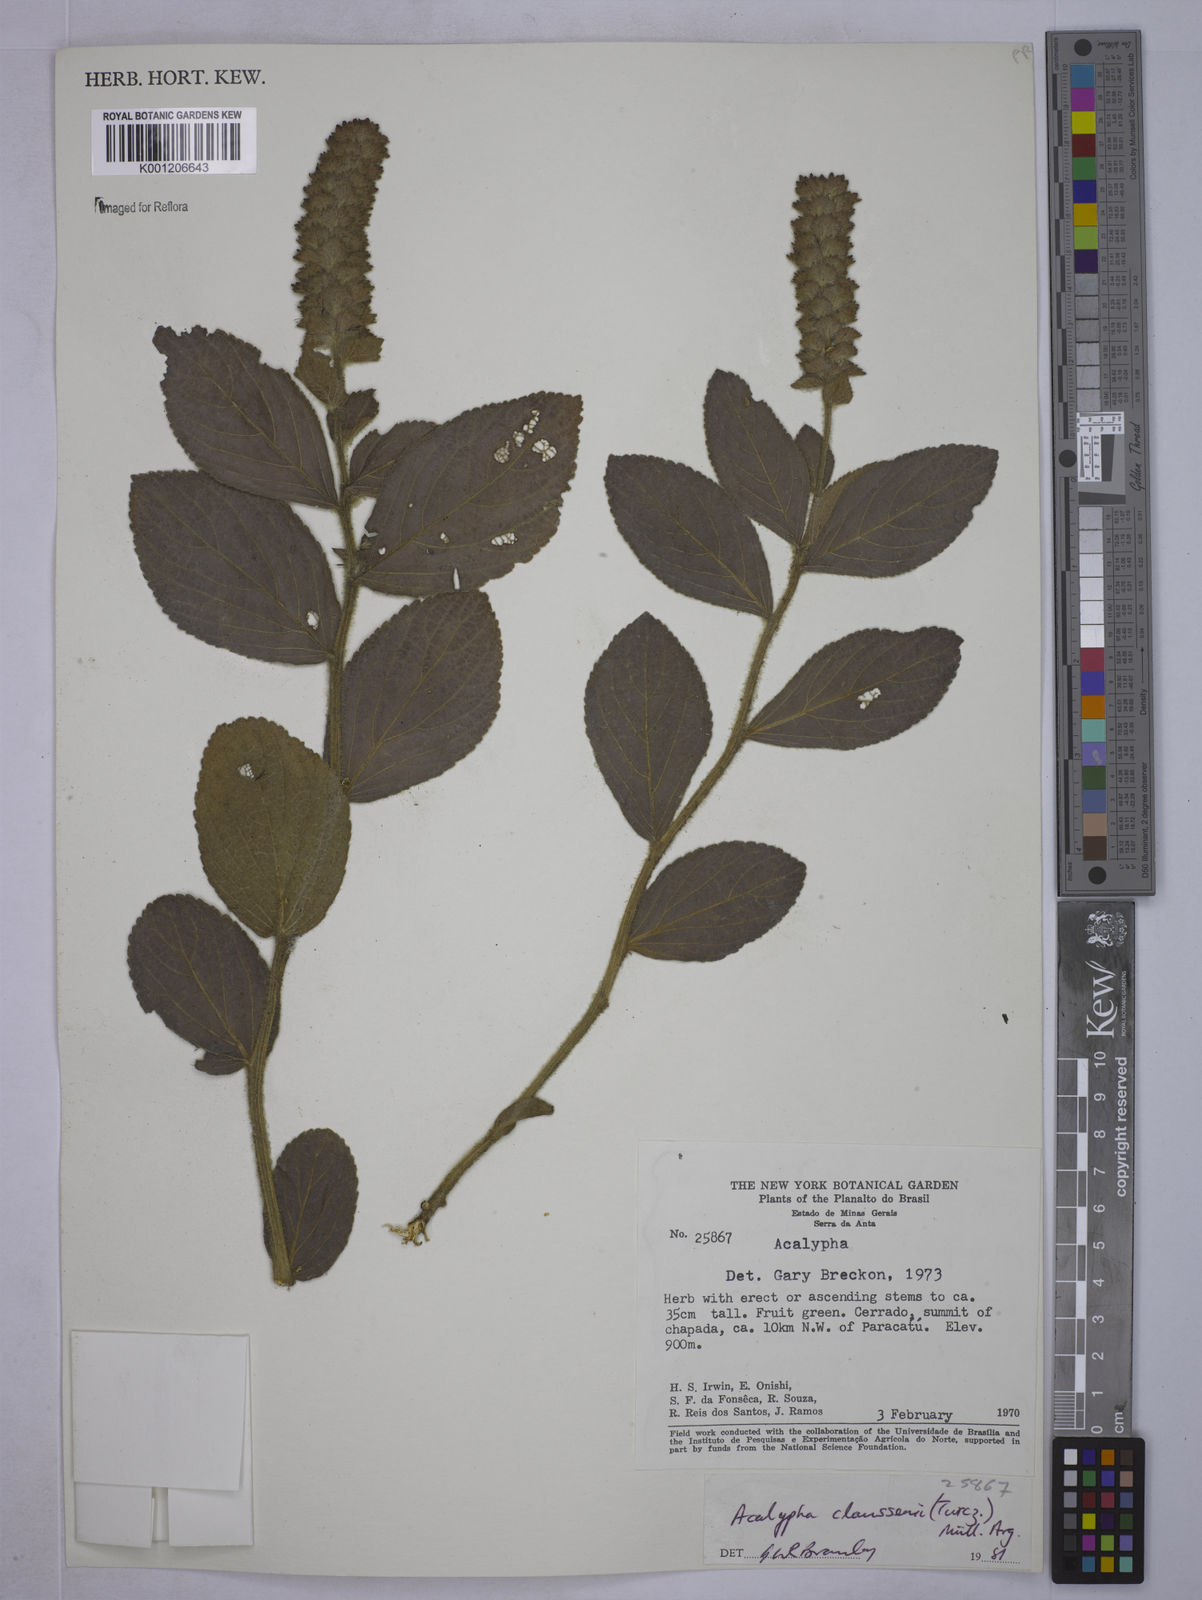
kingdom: Plantae
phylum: Tracheophyta
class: Magnoliopsida
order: Malpighiales
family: Euphorbiaceae
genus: Acalypha
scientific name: Acalypha
